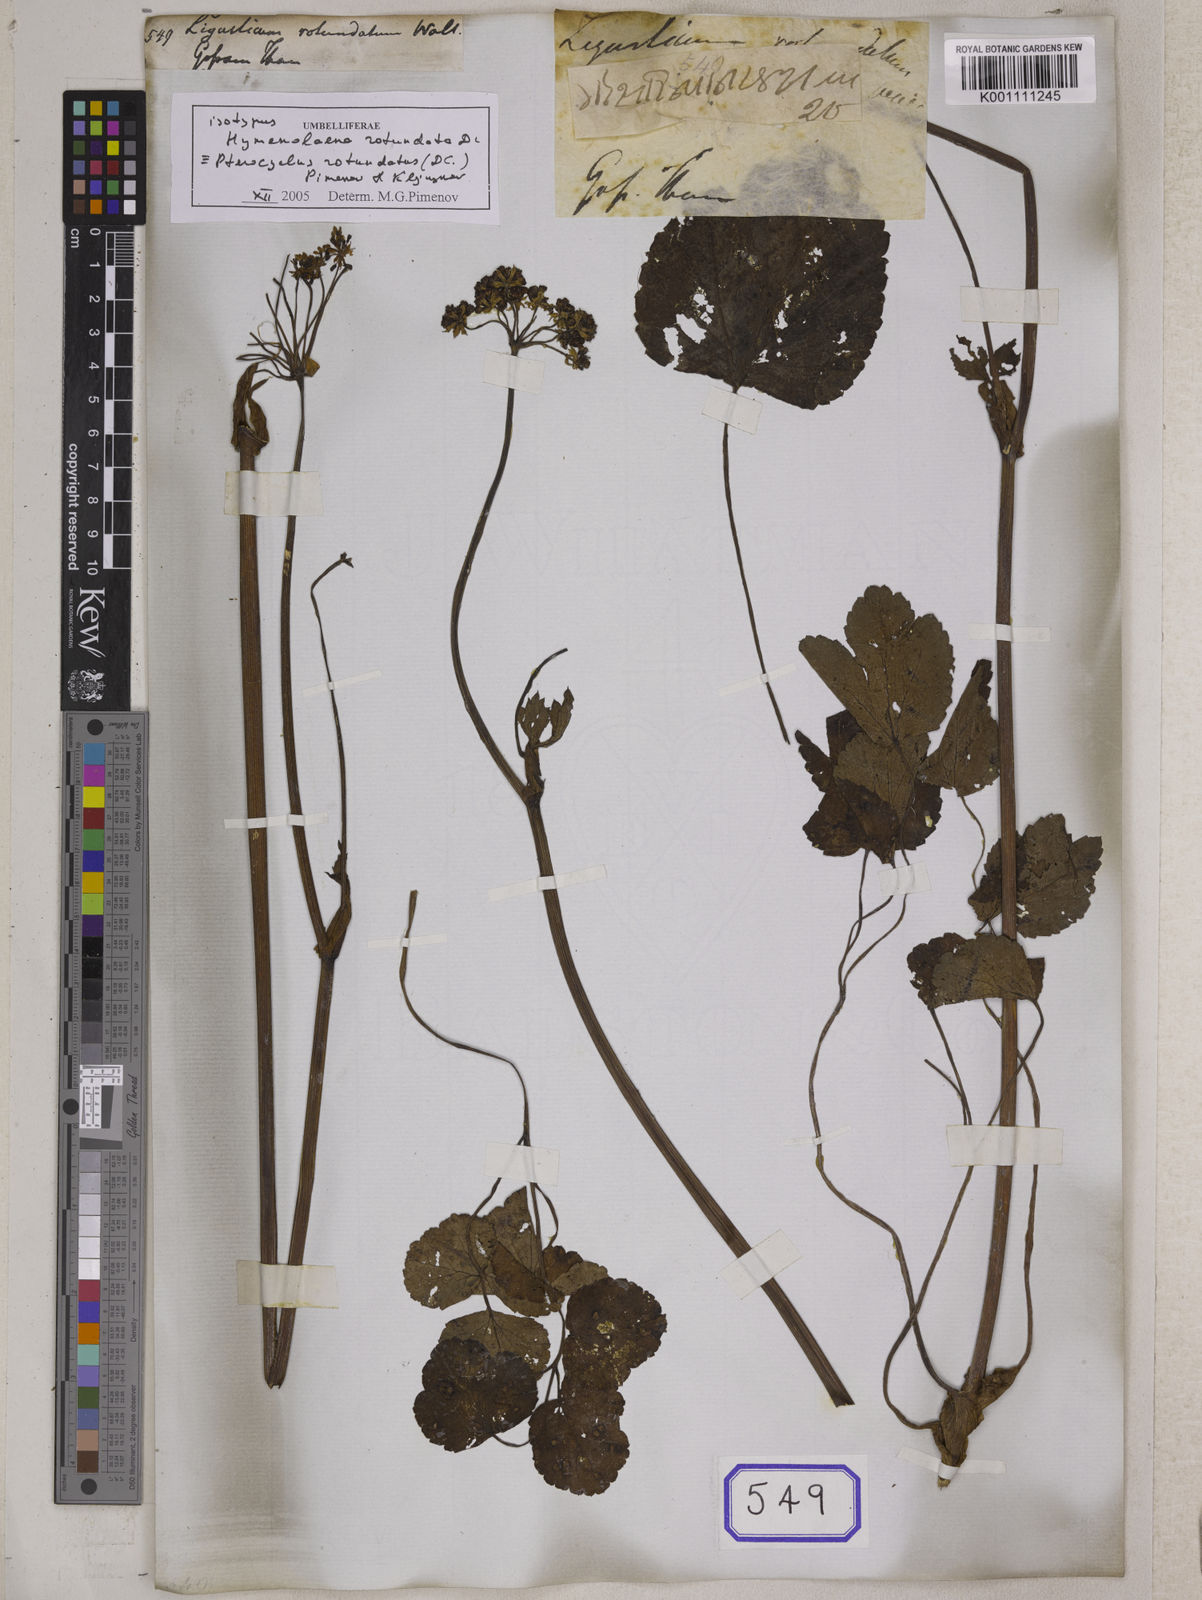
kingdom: Plantae
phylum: Tracheophyta
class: Magnoliopsida
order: Apiales
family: Apiaceae
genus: Ligusticum
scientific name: Ligusticum
